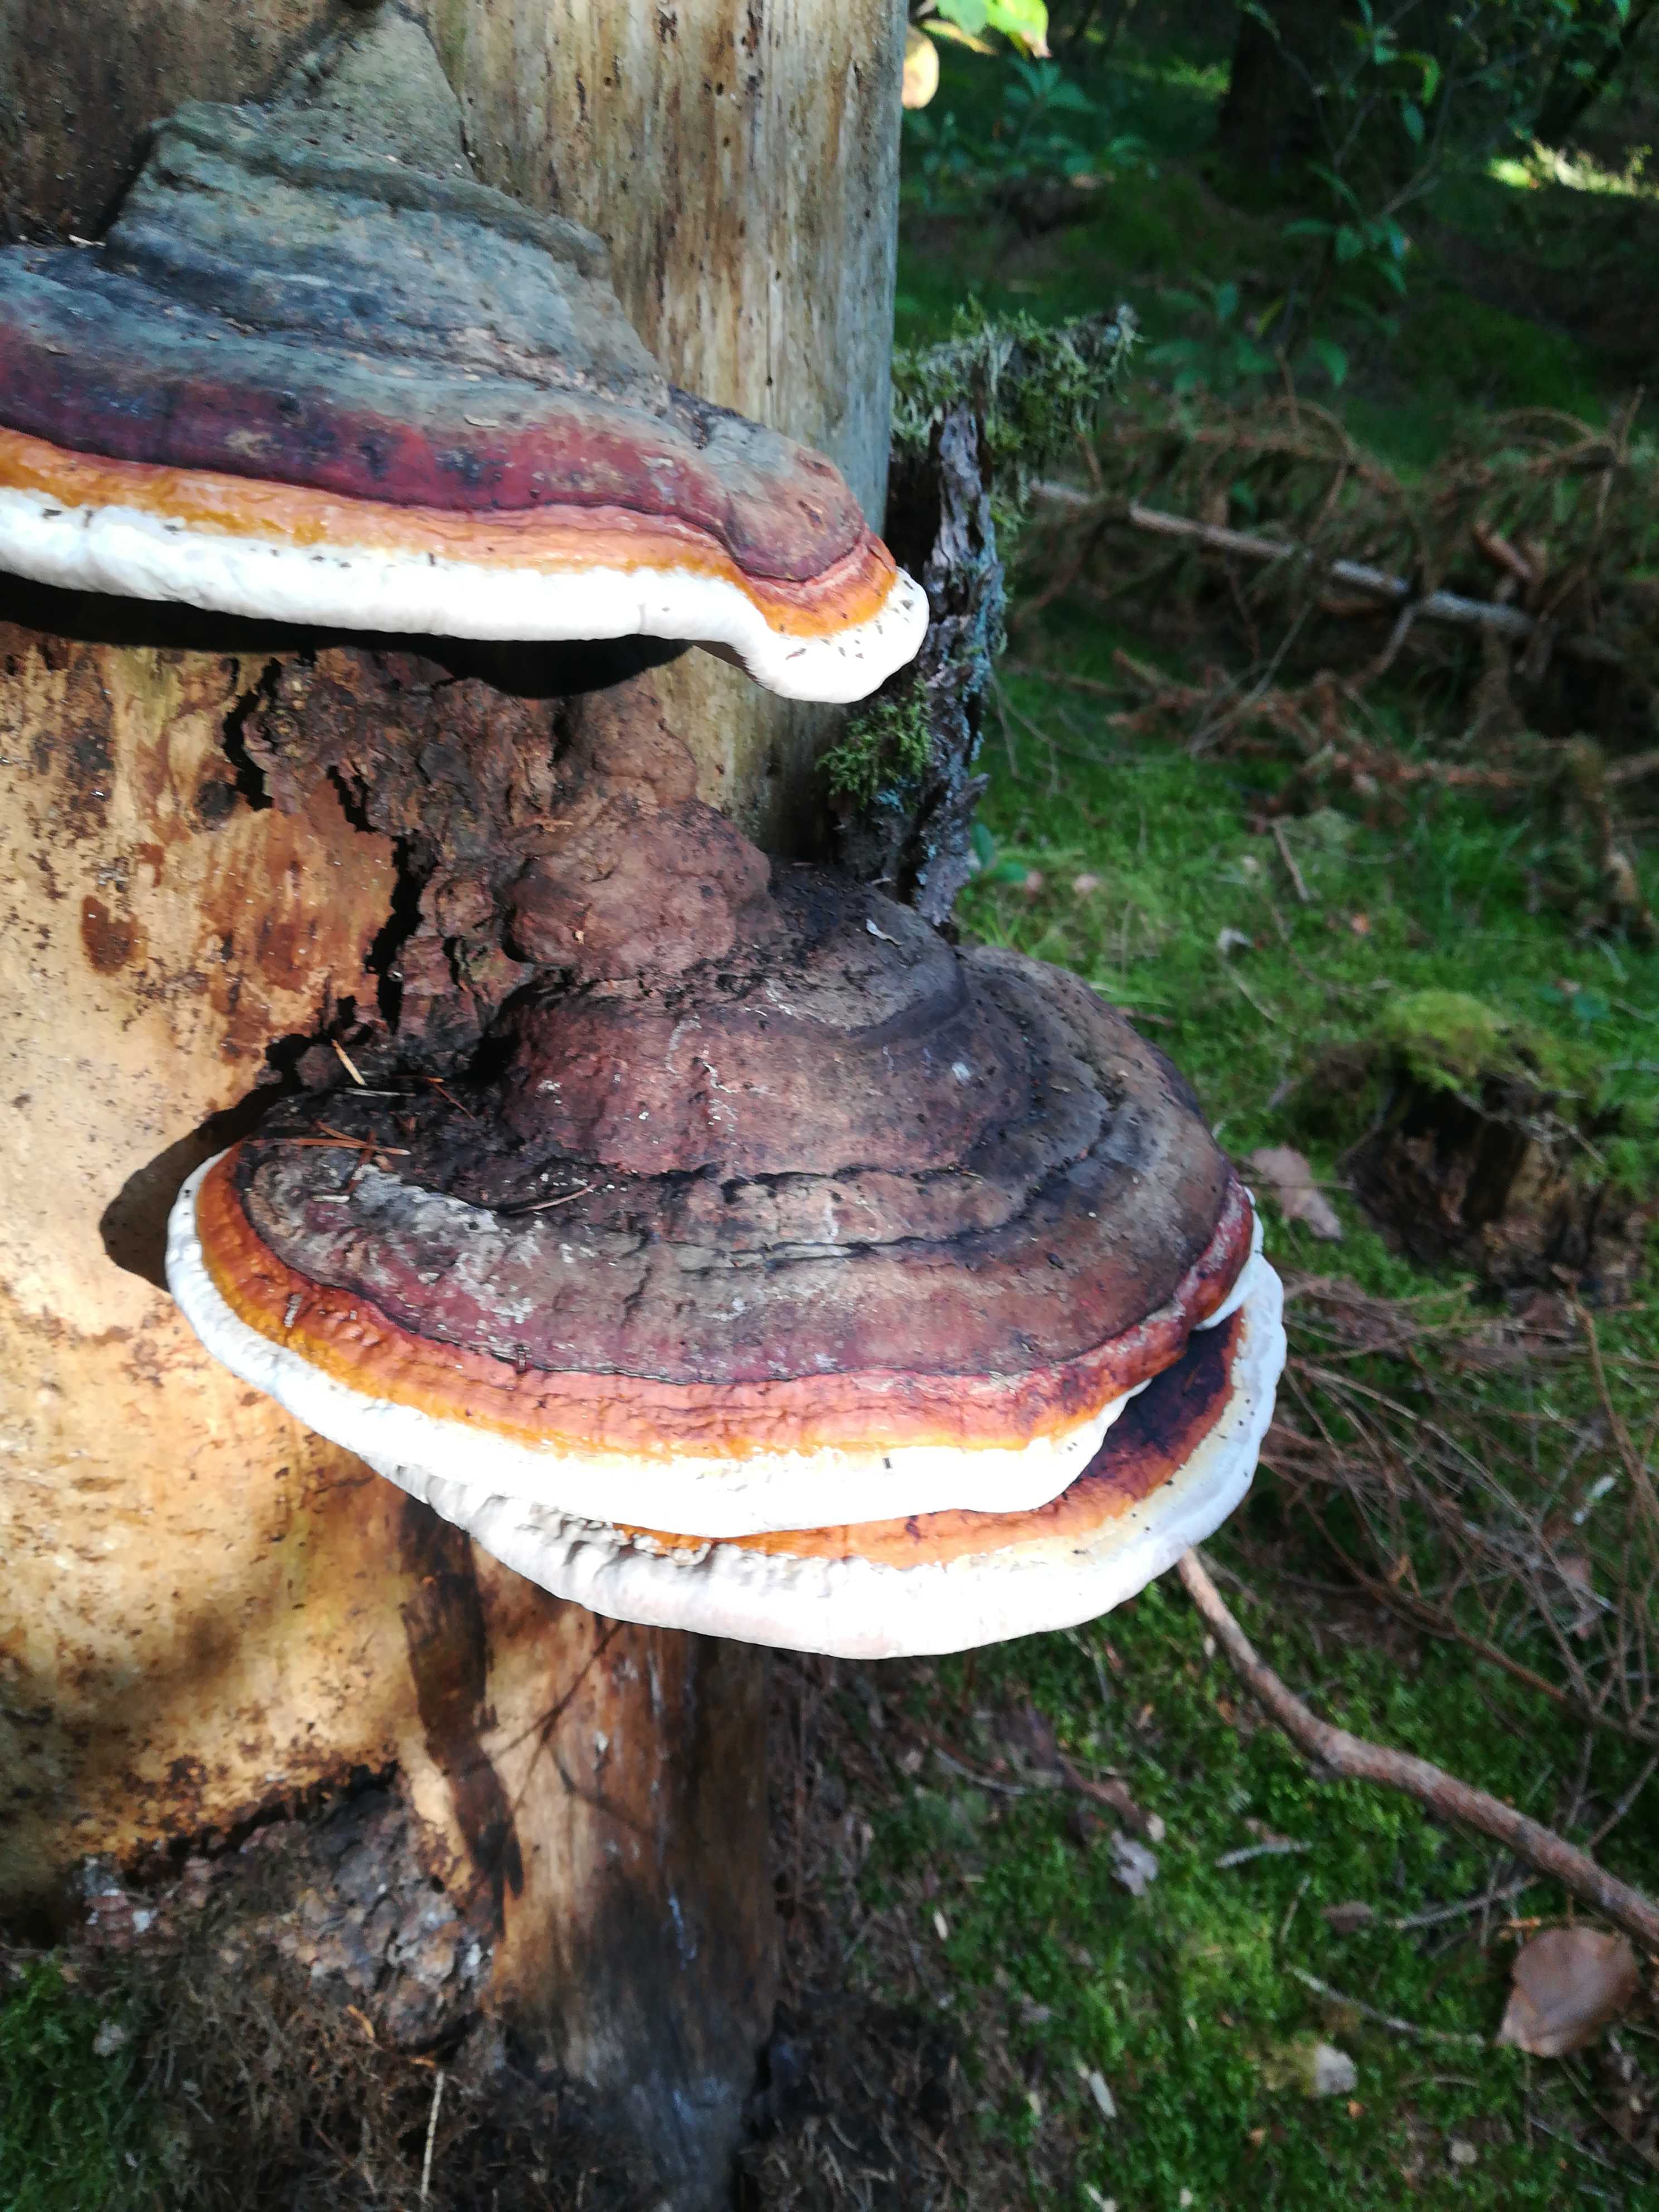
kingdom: Fungi
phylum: Basidiomycota
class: Agaricomycetes
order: Polyporales
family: Fomitopsidaceae
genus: Fomitopsis
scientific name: Fomitopsis pinicola
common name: randbæltet hovporesvamp
